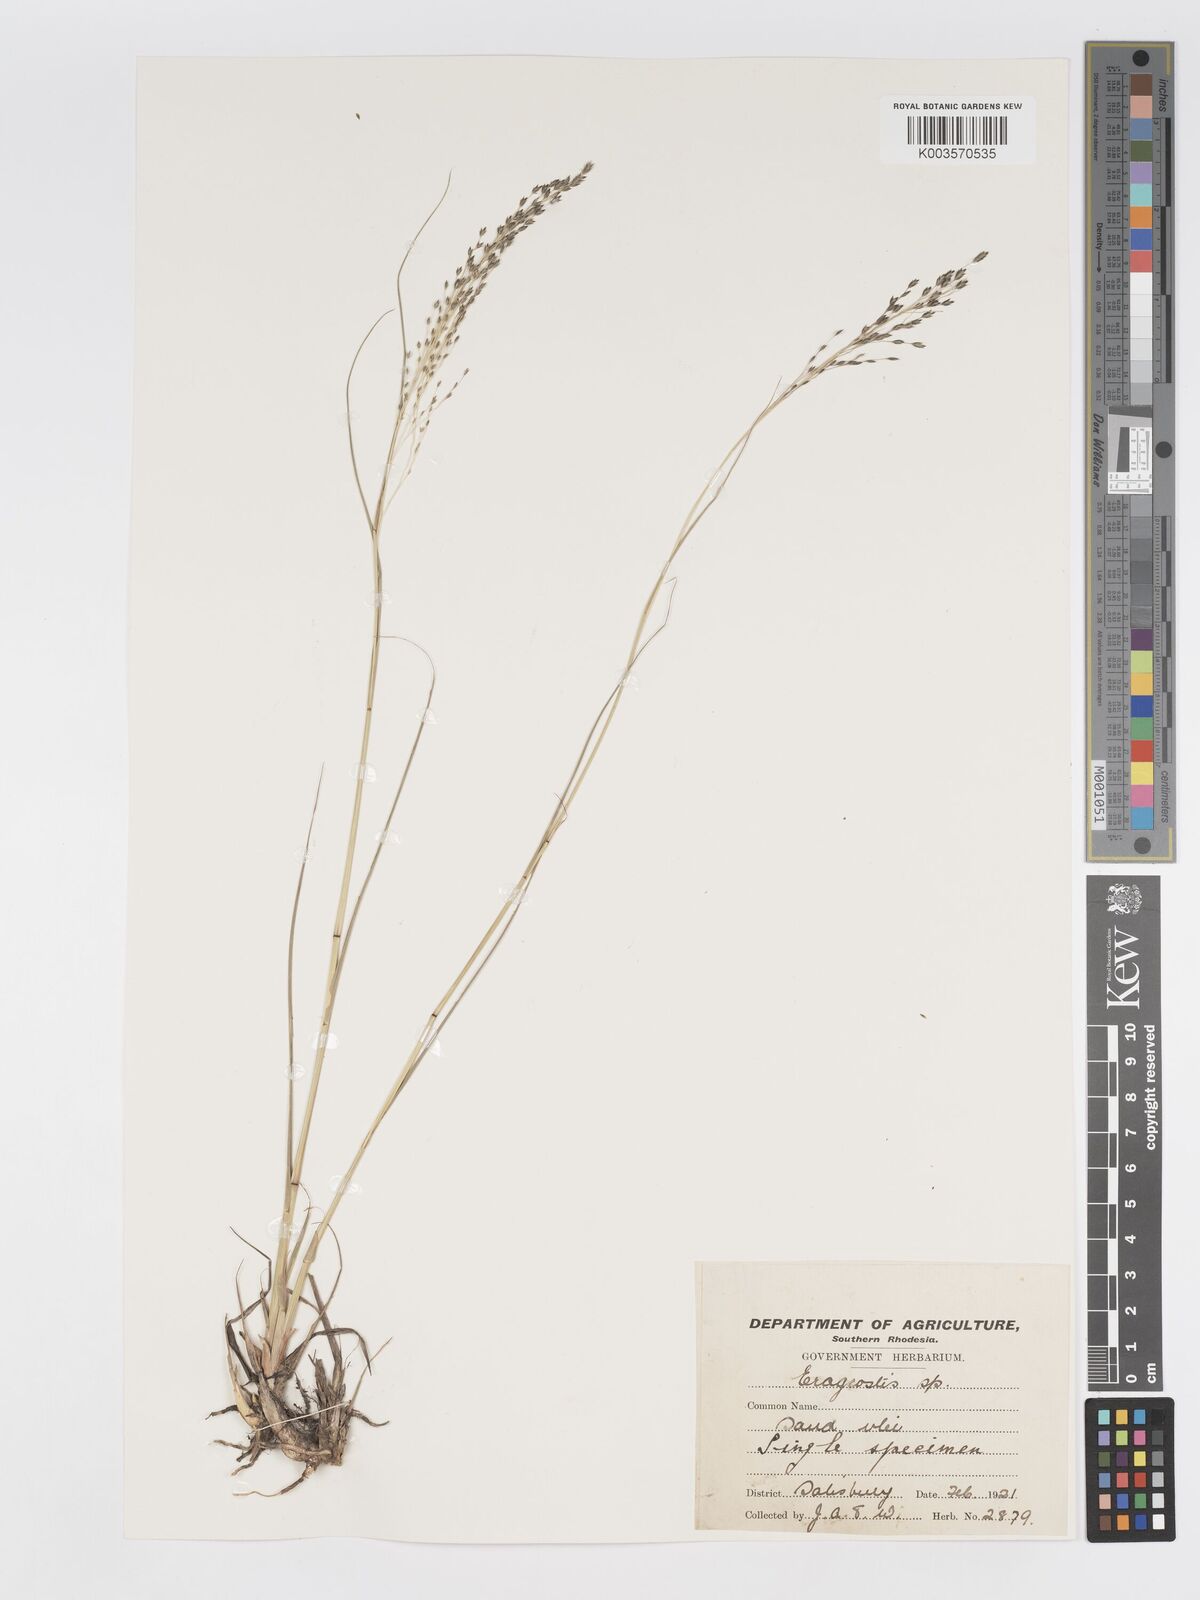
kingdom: Plantae
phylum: Tracheophyta
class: Liliopsida
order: Poales
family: Poaceae
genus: Eragrostis
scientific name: Eragrostis inamoena
